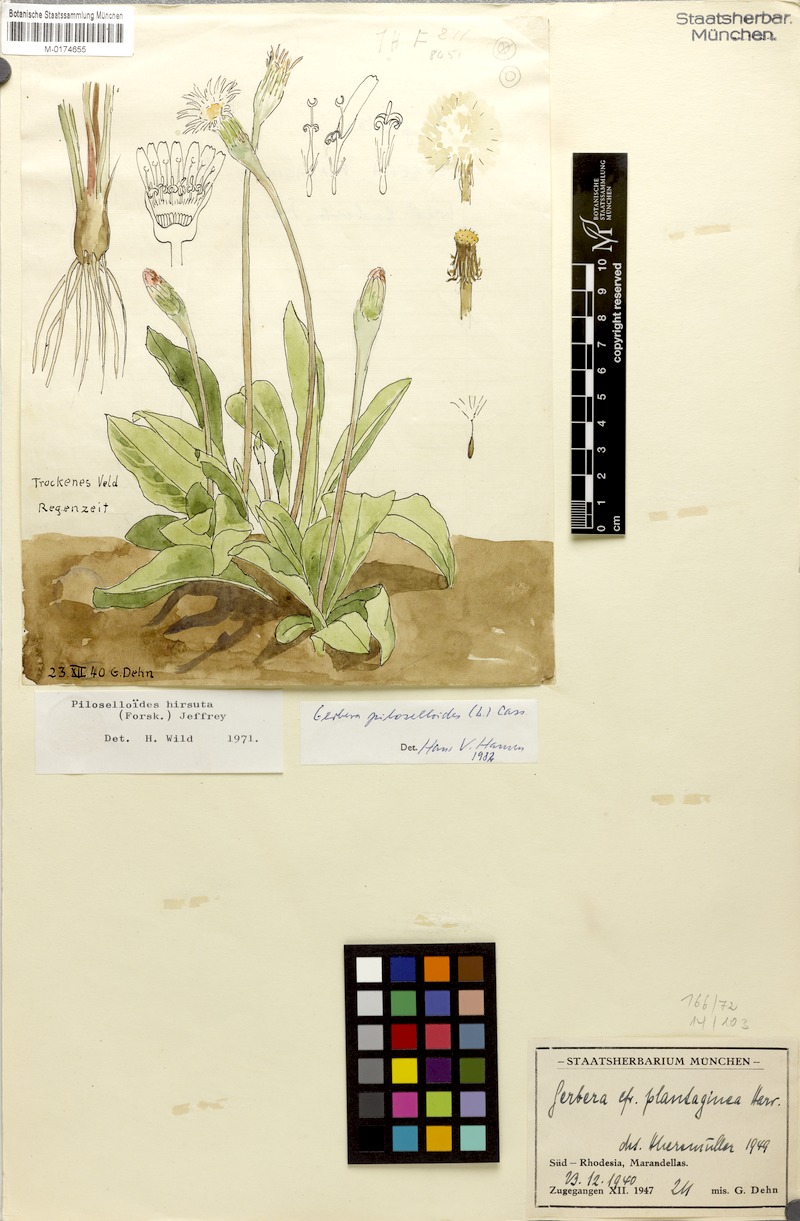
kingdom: Plantae
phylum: Tracheophyta
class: Magnoliopsida
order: Asterales
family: Asteraceae
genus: Piloselloides
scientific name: Piloselloides hirsuta
